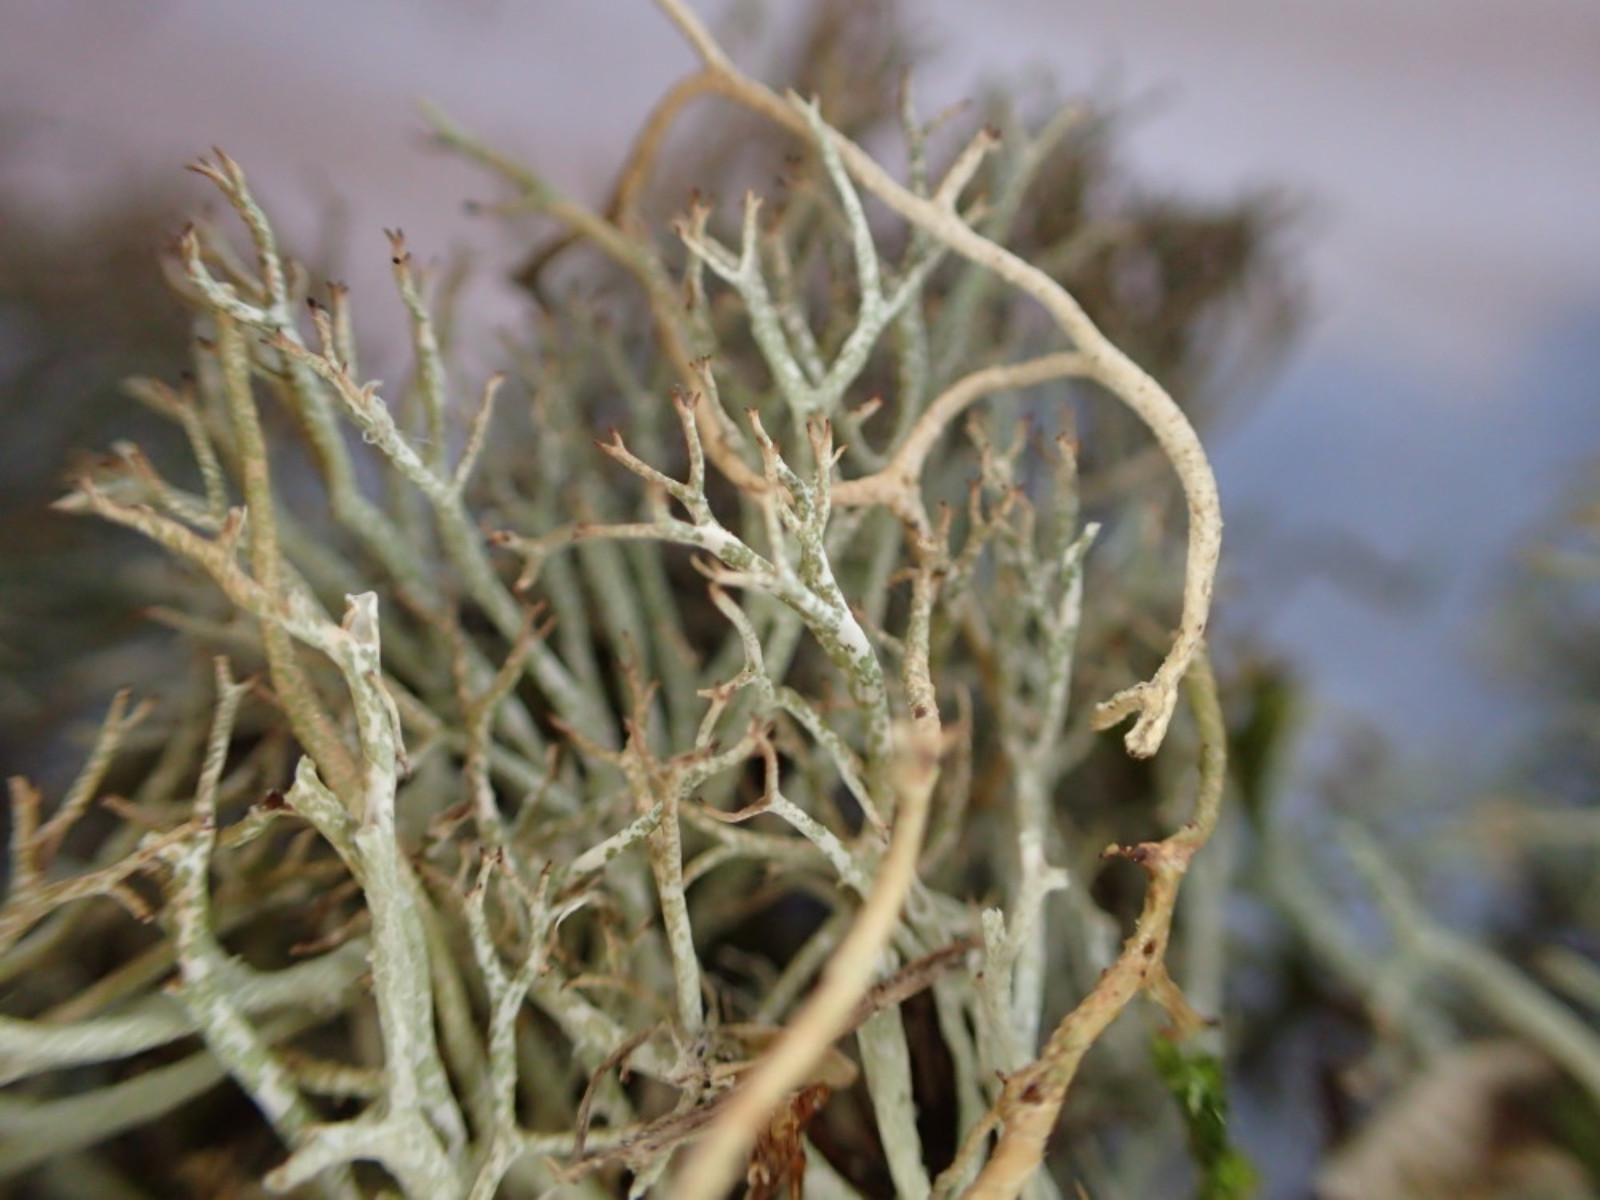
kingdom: Fungi
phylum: Ascomycota
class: Lecanoromycetes
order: Lecanorales
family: Cladoniaceae
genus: Cladonia
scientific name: Cladonia rangiformis
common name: spættet bægerlav
